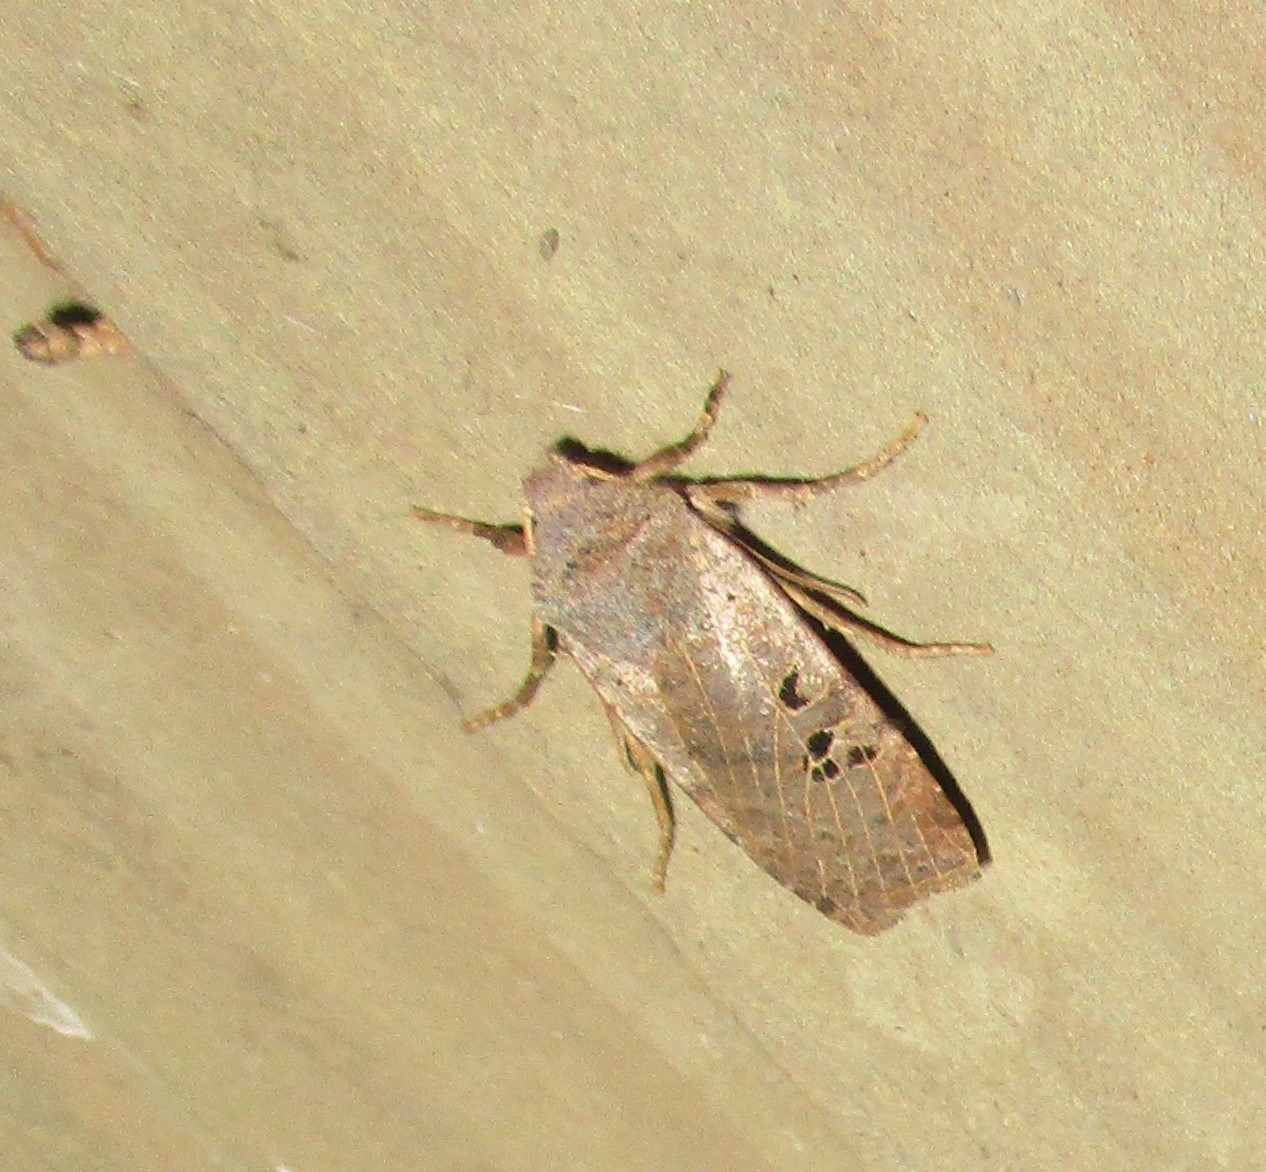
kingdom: Animalia
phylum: Arthropoda
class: Insecta
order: Lepidoptera
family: Noctuidae
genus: Conistra
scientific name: Conistra rubiginosa
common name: Sortmærket overvintringsugle
